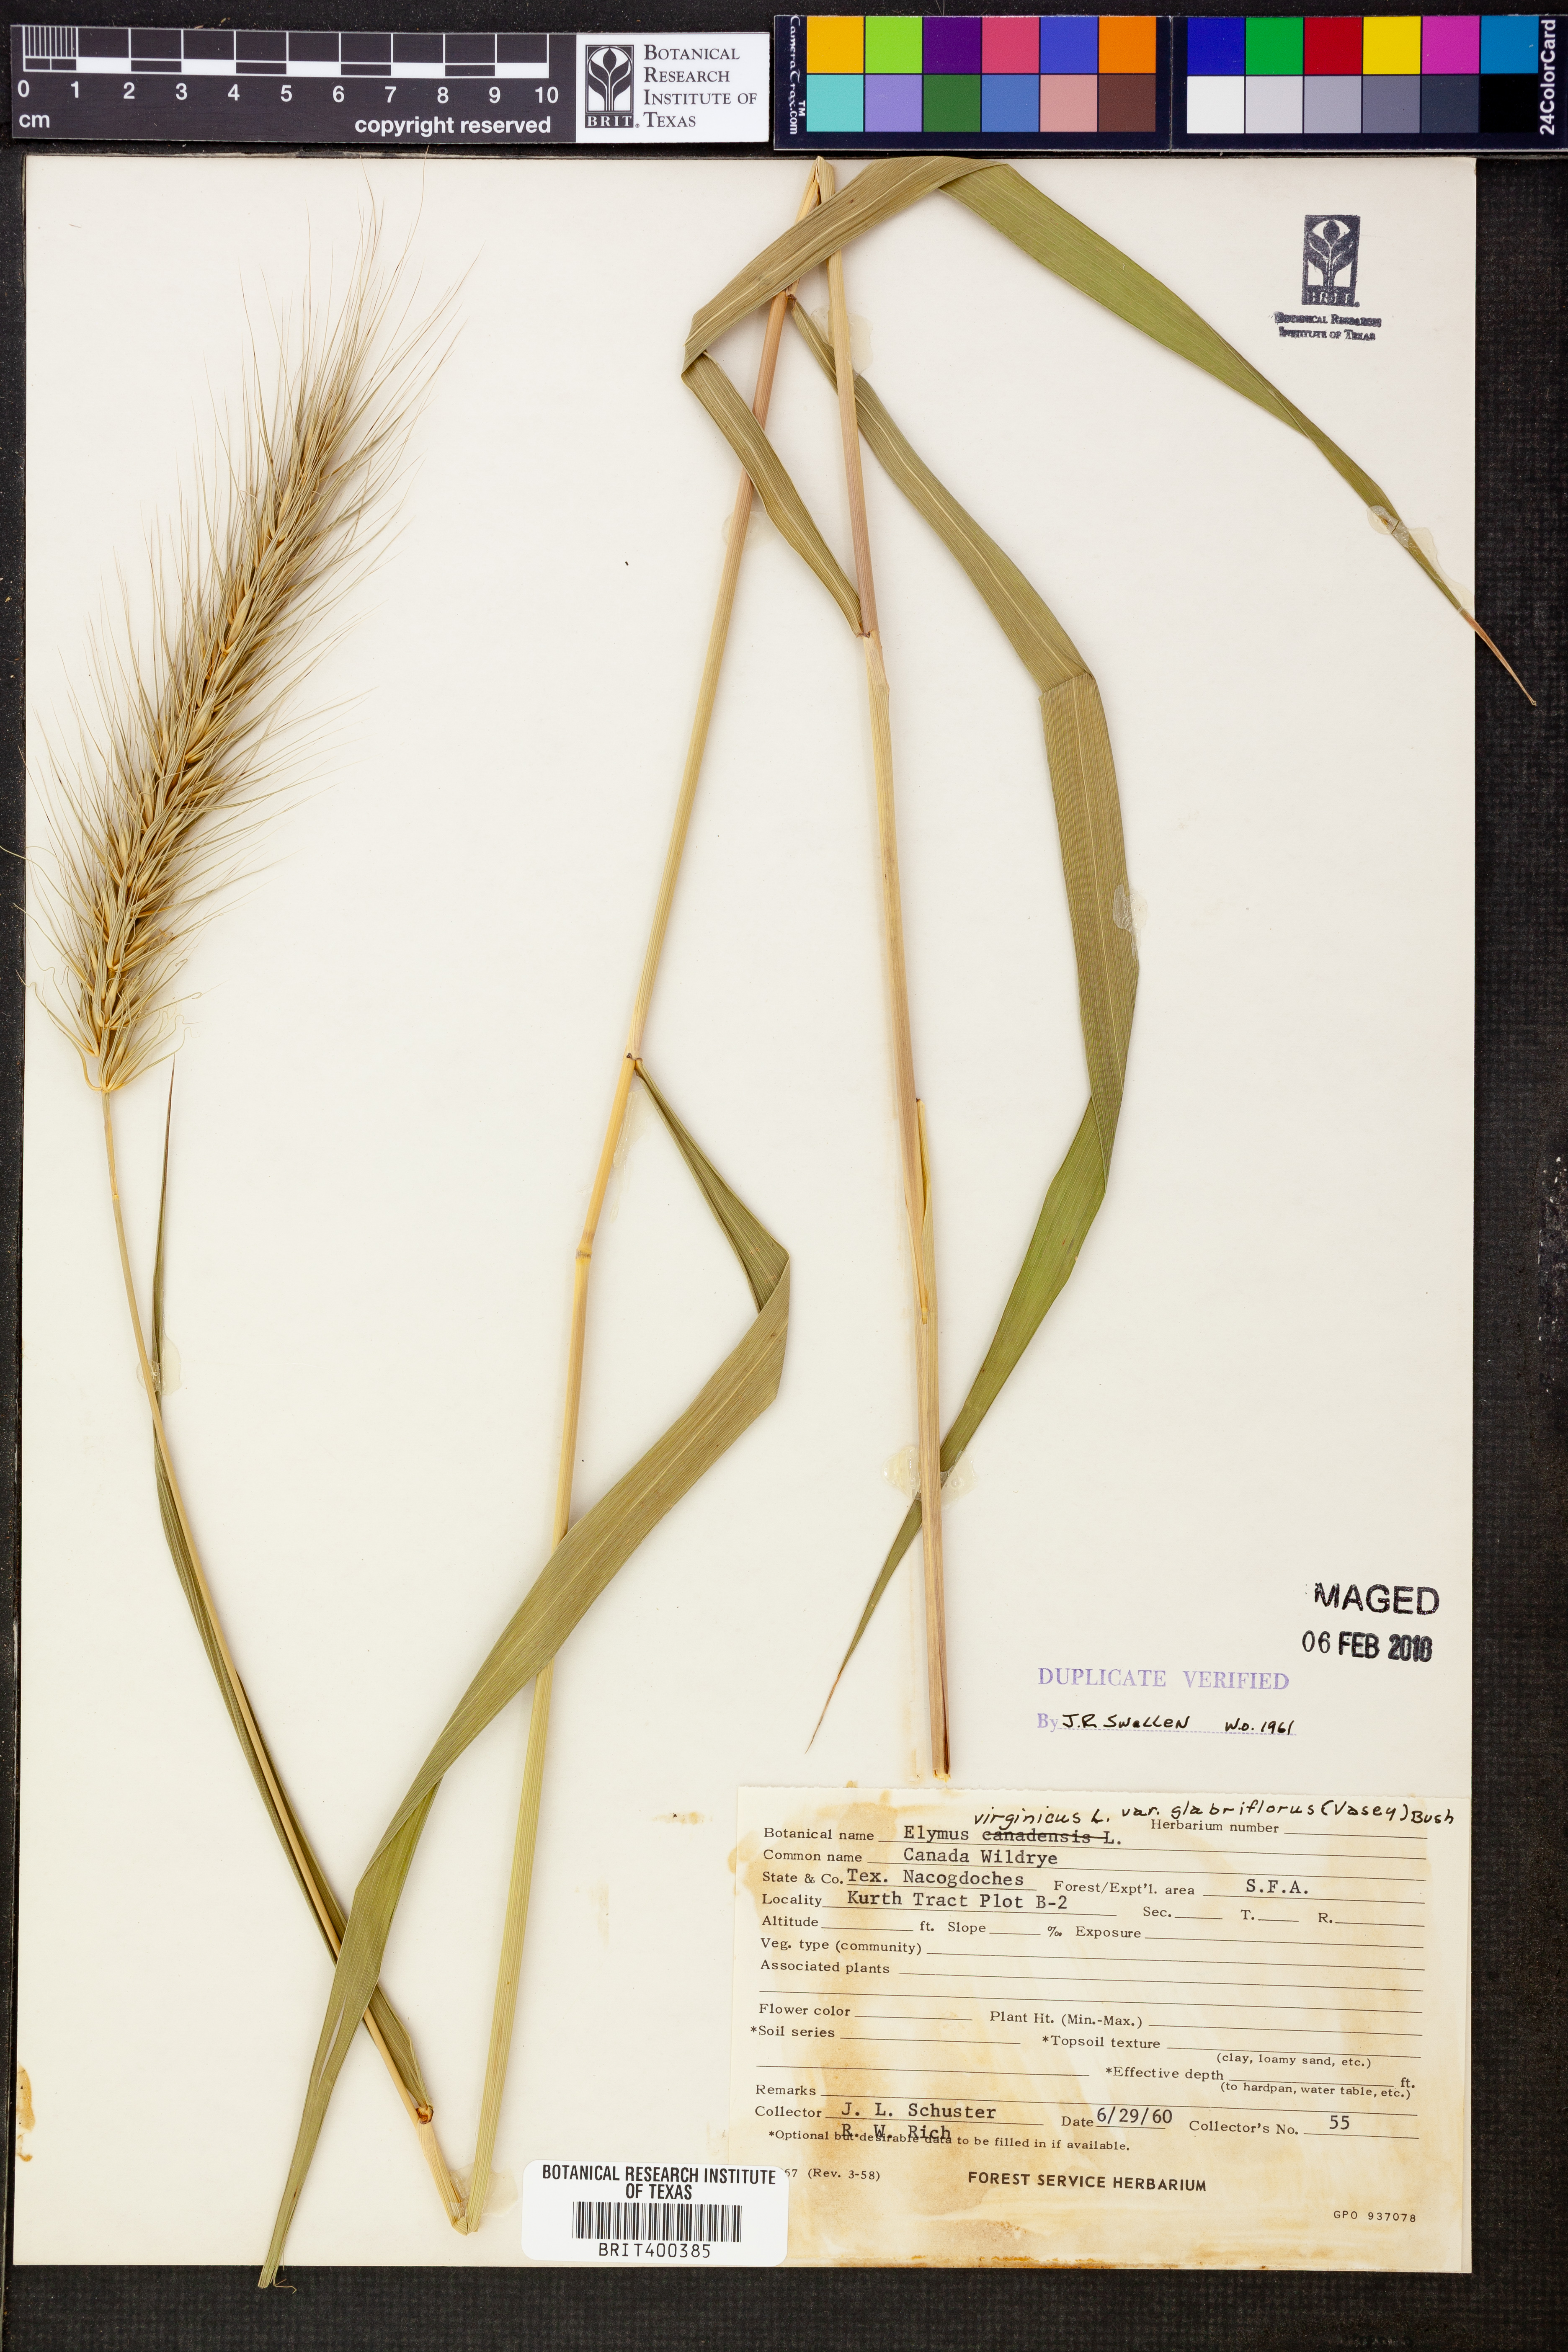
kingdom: Plantae
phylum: Tracheophyta
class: Liliopsida
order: Poales
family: Poaceae
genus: Elymus
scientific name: Elymus virginicus
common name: Common eastern wildrye
